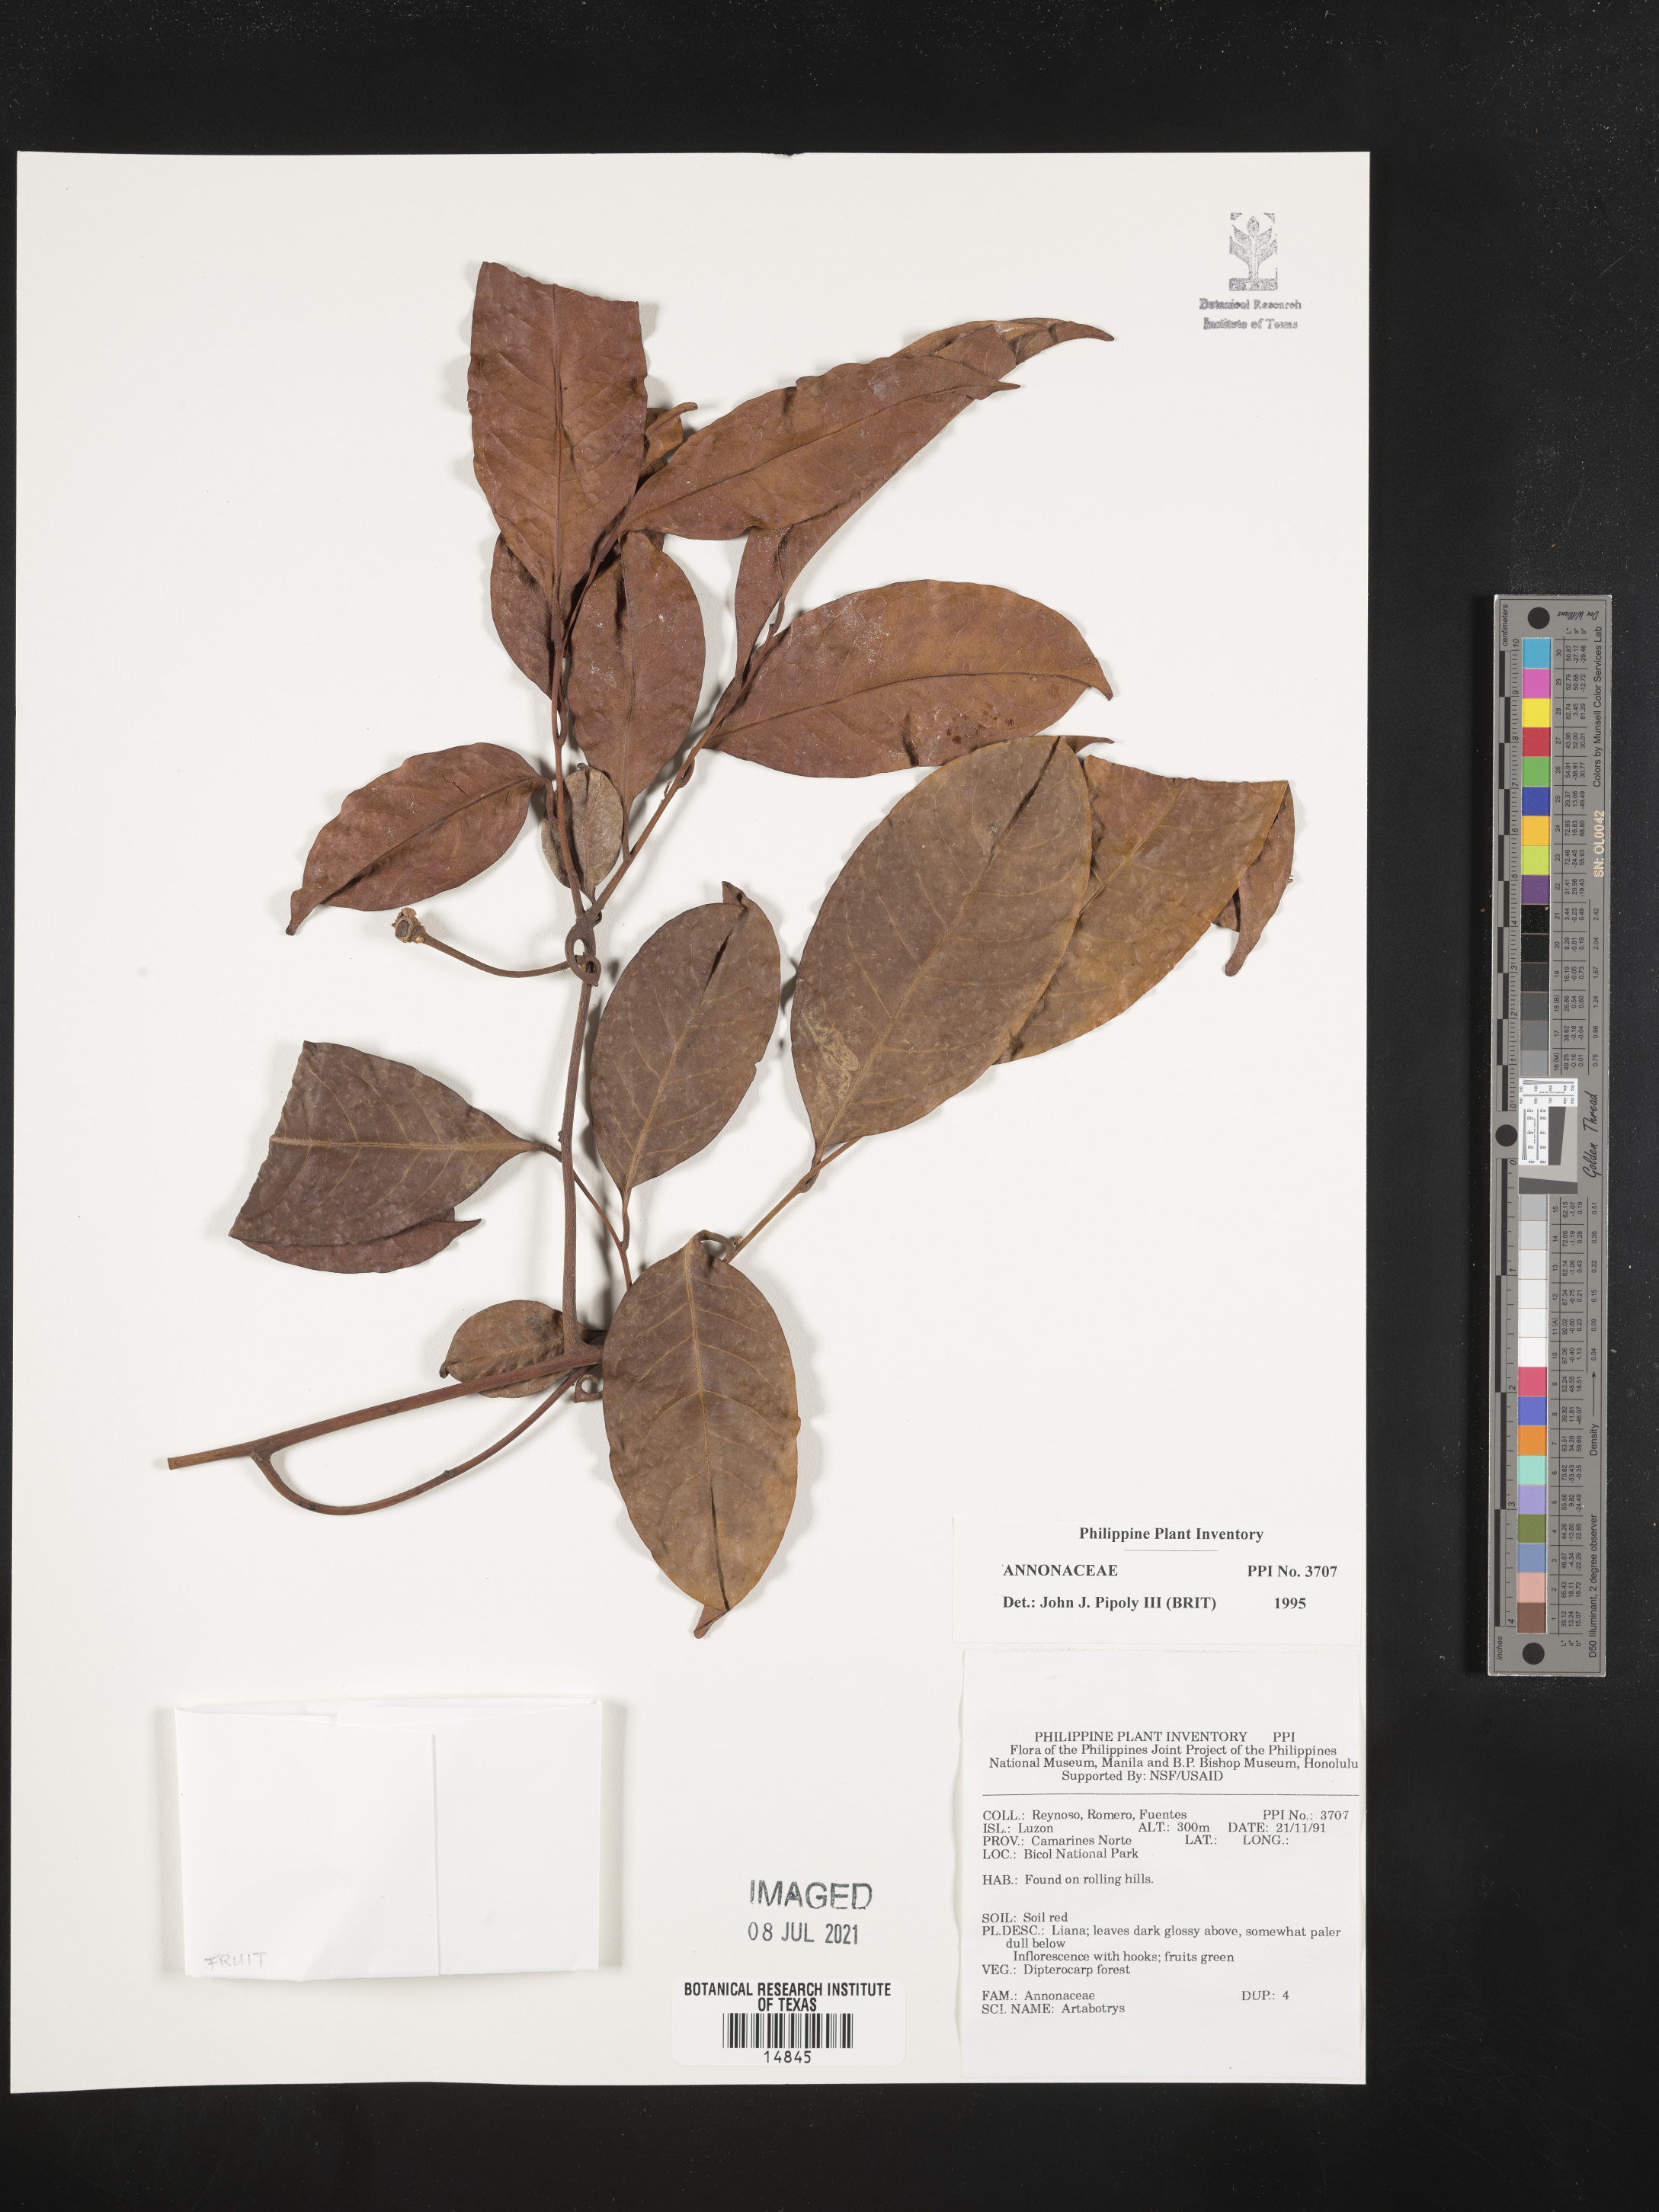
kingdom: Plantae
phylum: Tracheophyta
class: Magnoliopsida
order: Magnoliales
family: Annonaceae
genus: Artabotrys
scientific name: Artabotrys
